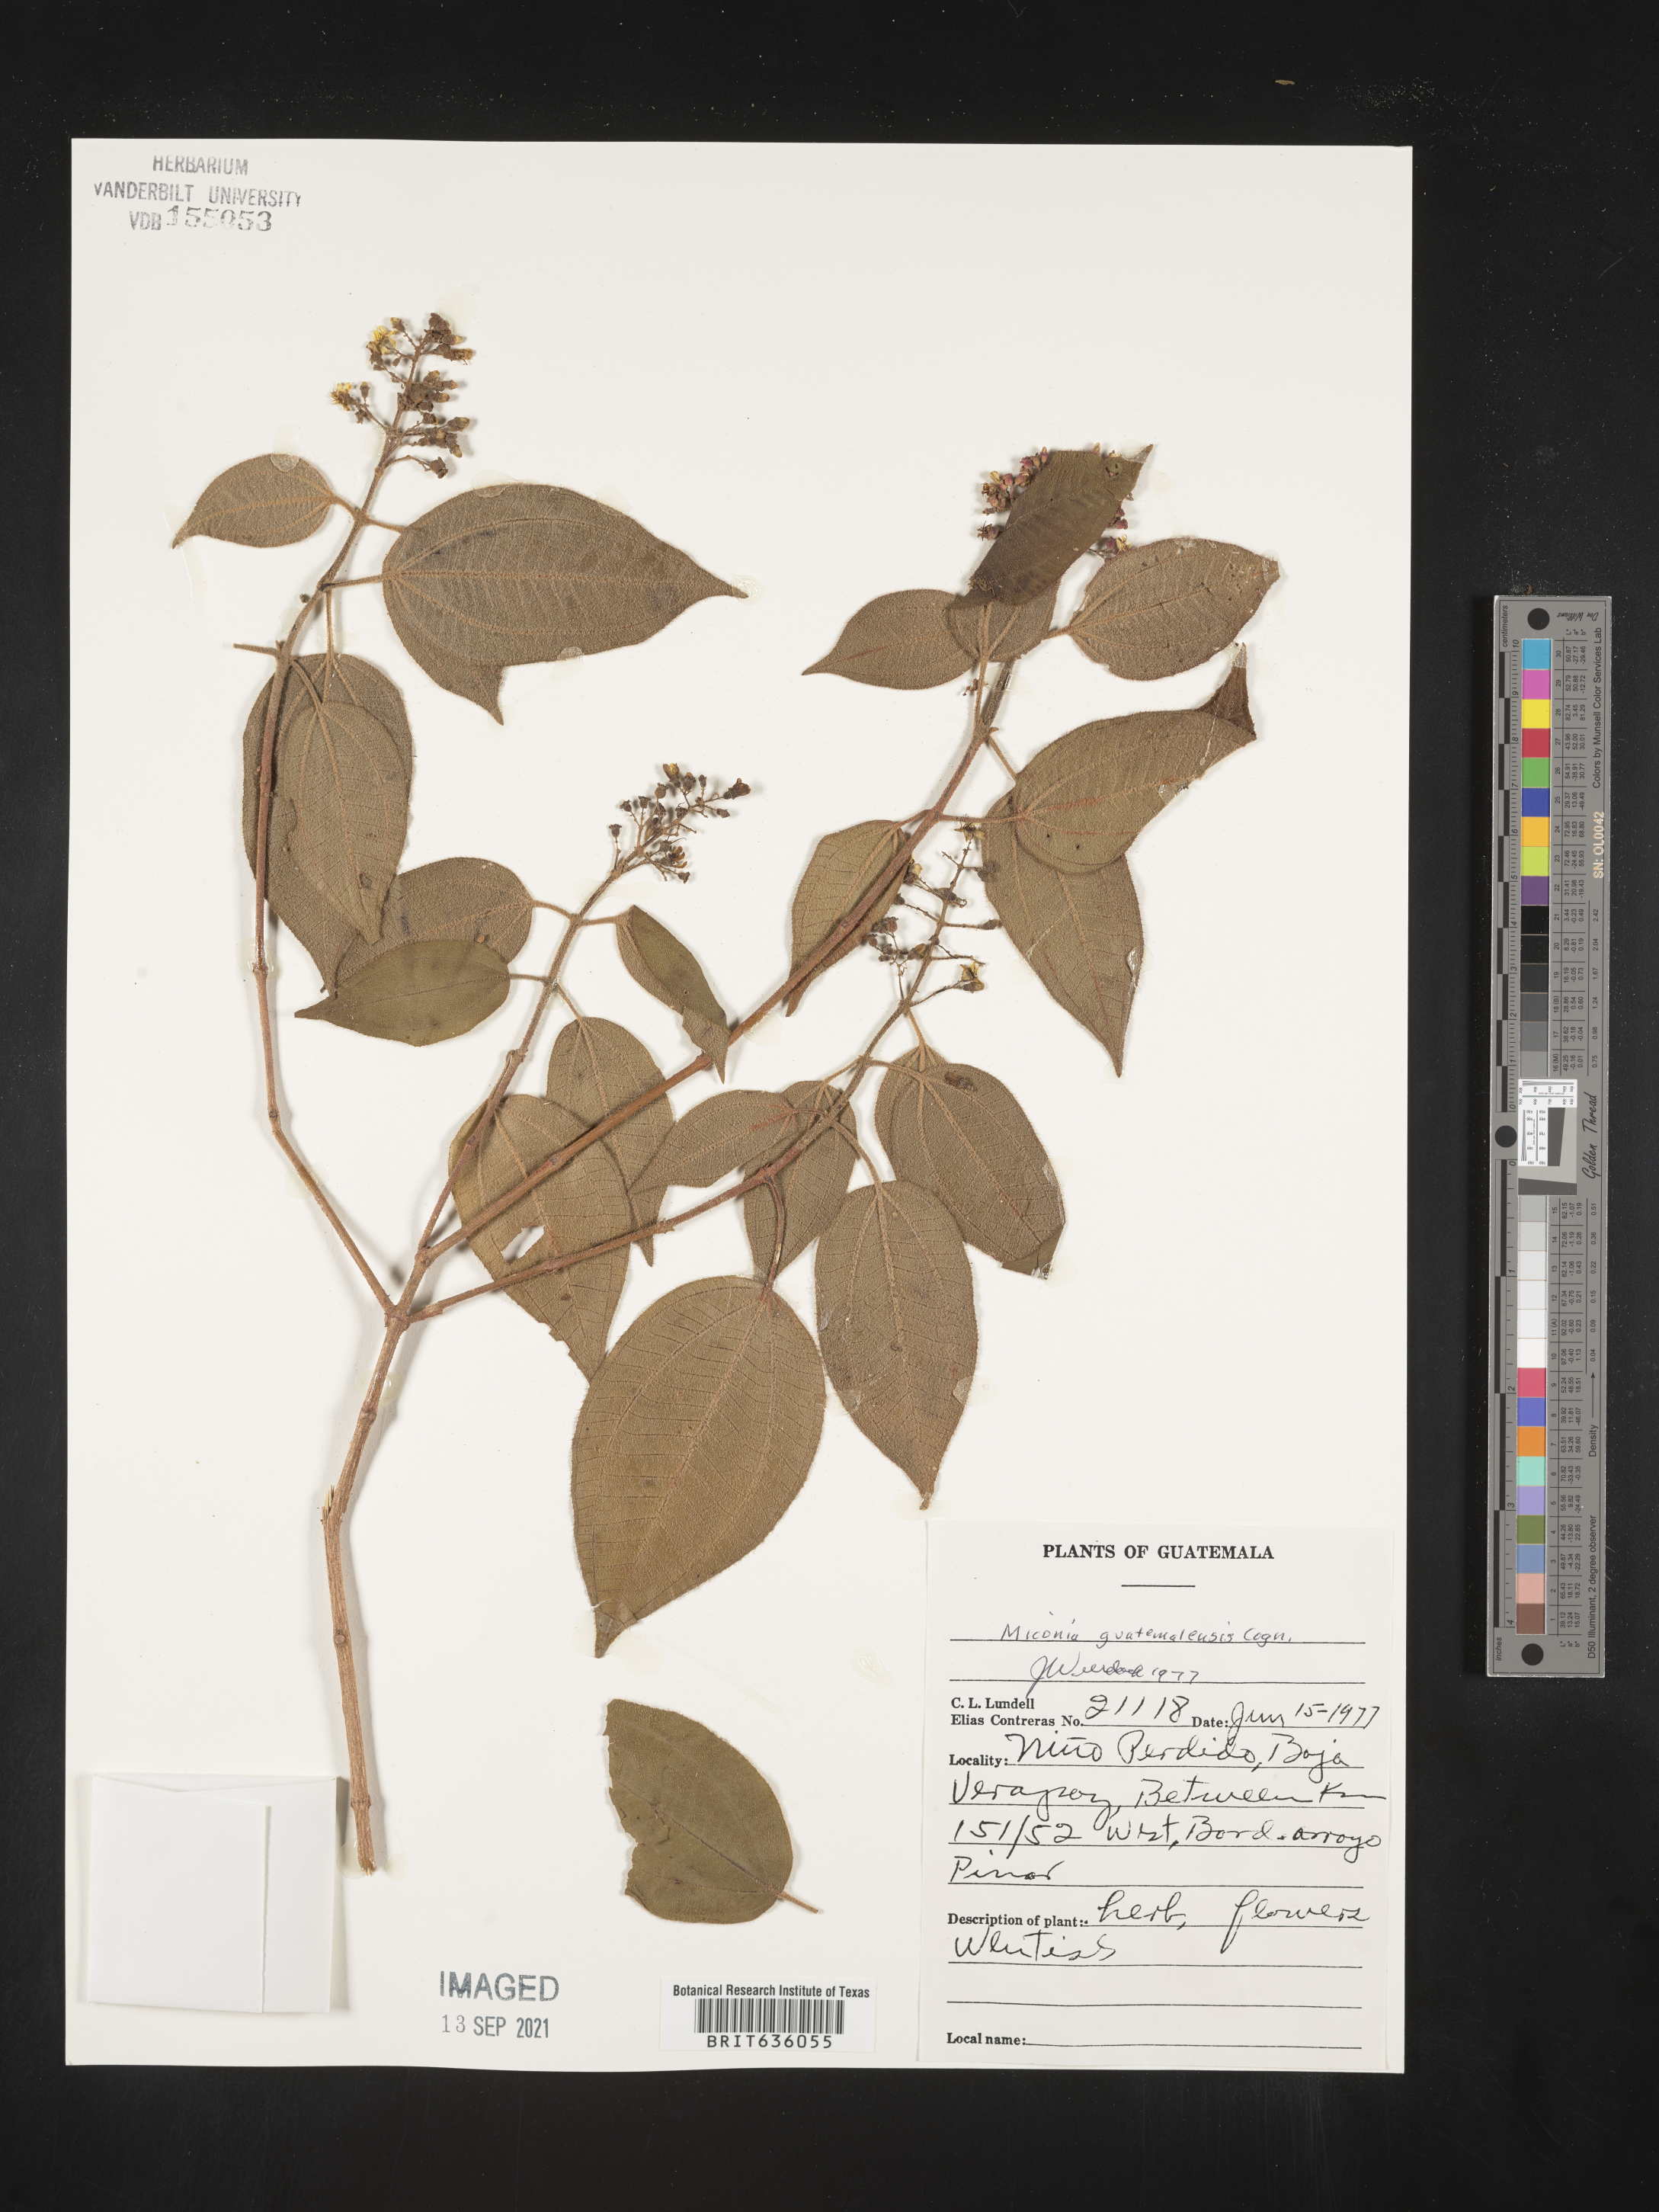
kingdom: Plantae
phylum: Tracheophyta
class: Magnoliopsida
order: Myrtales
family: Melastomataceae
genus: Miconia
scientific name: Miconia
